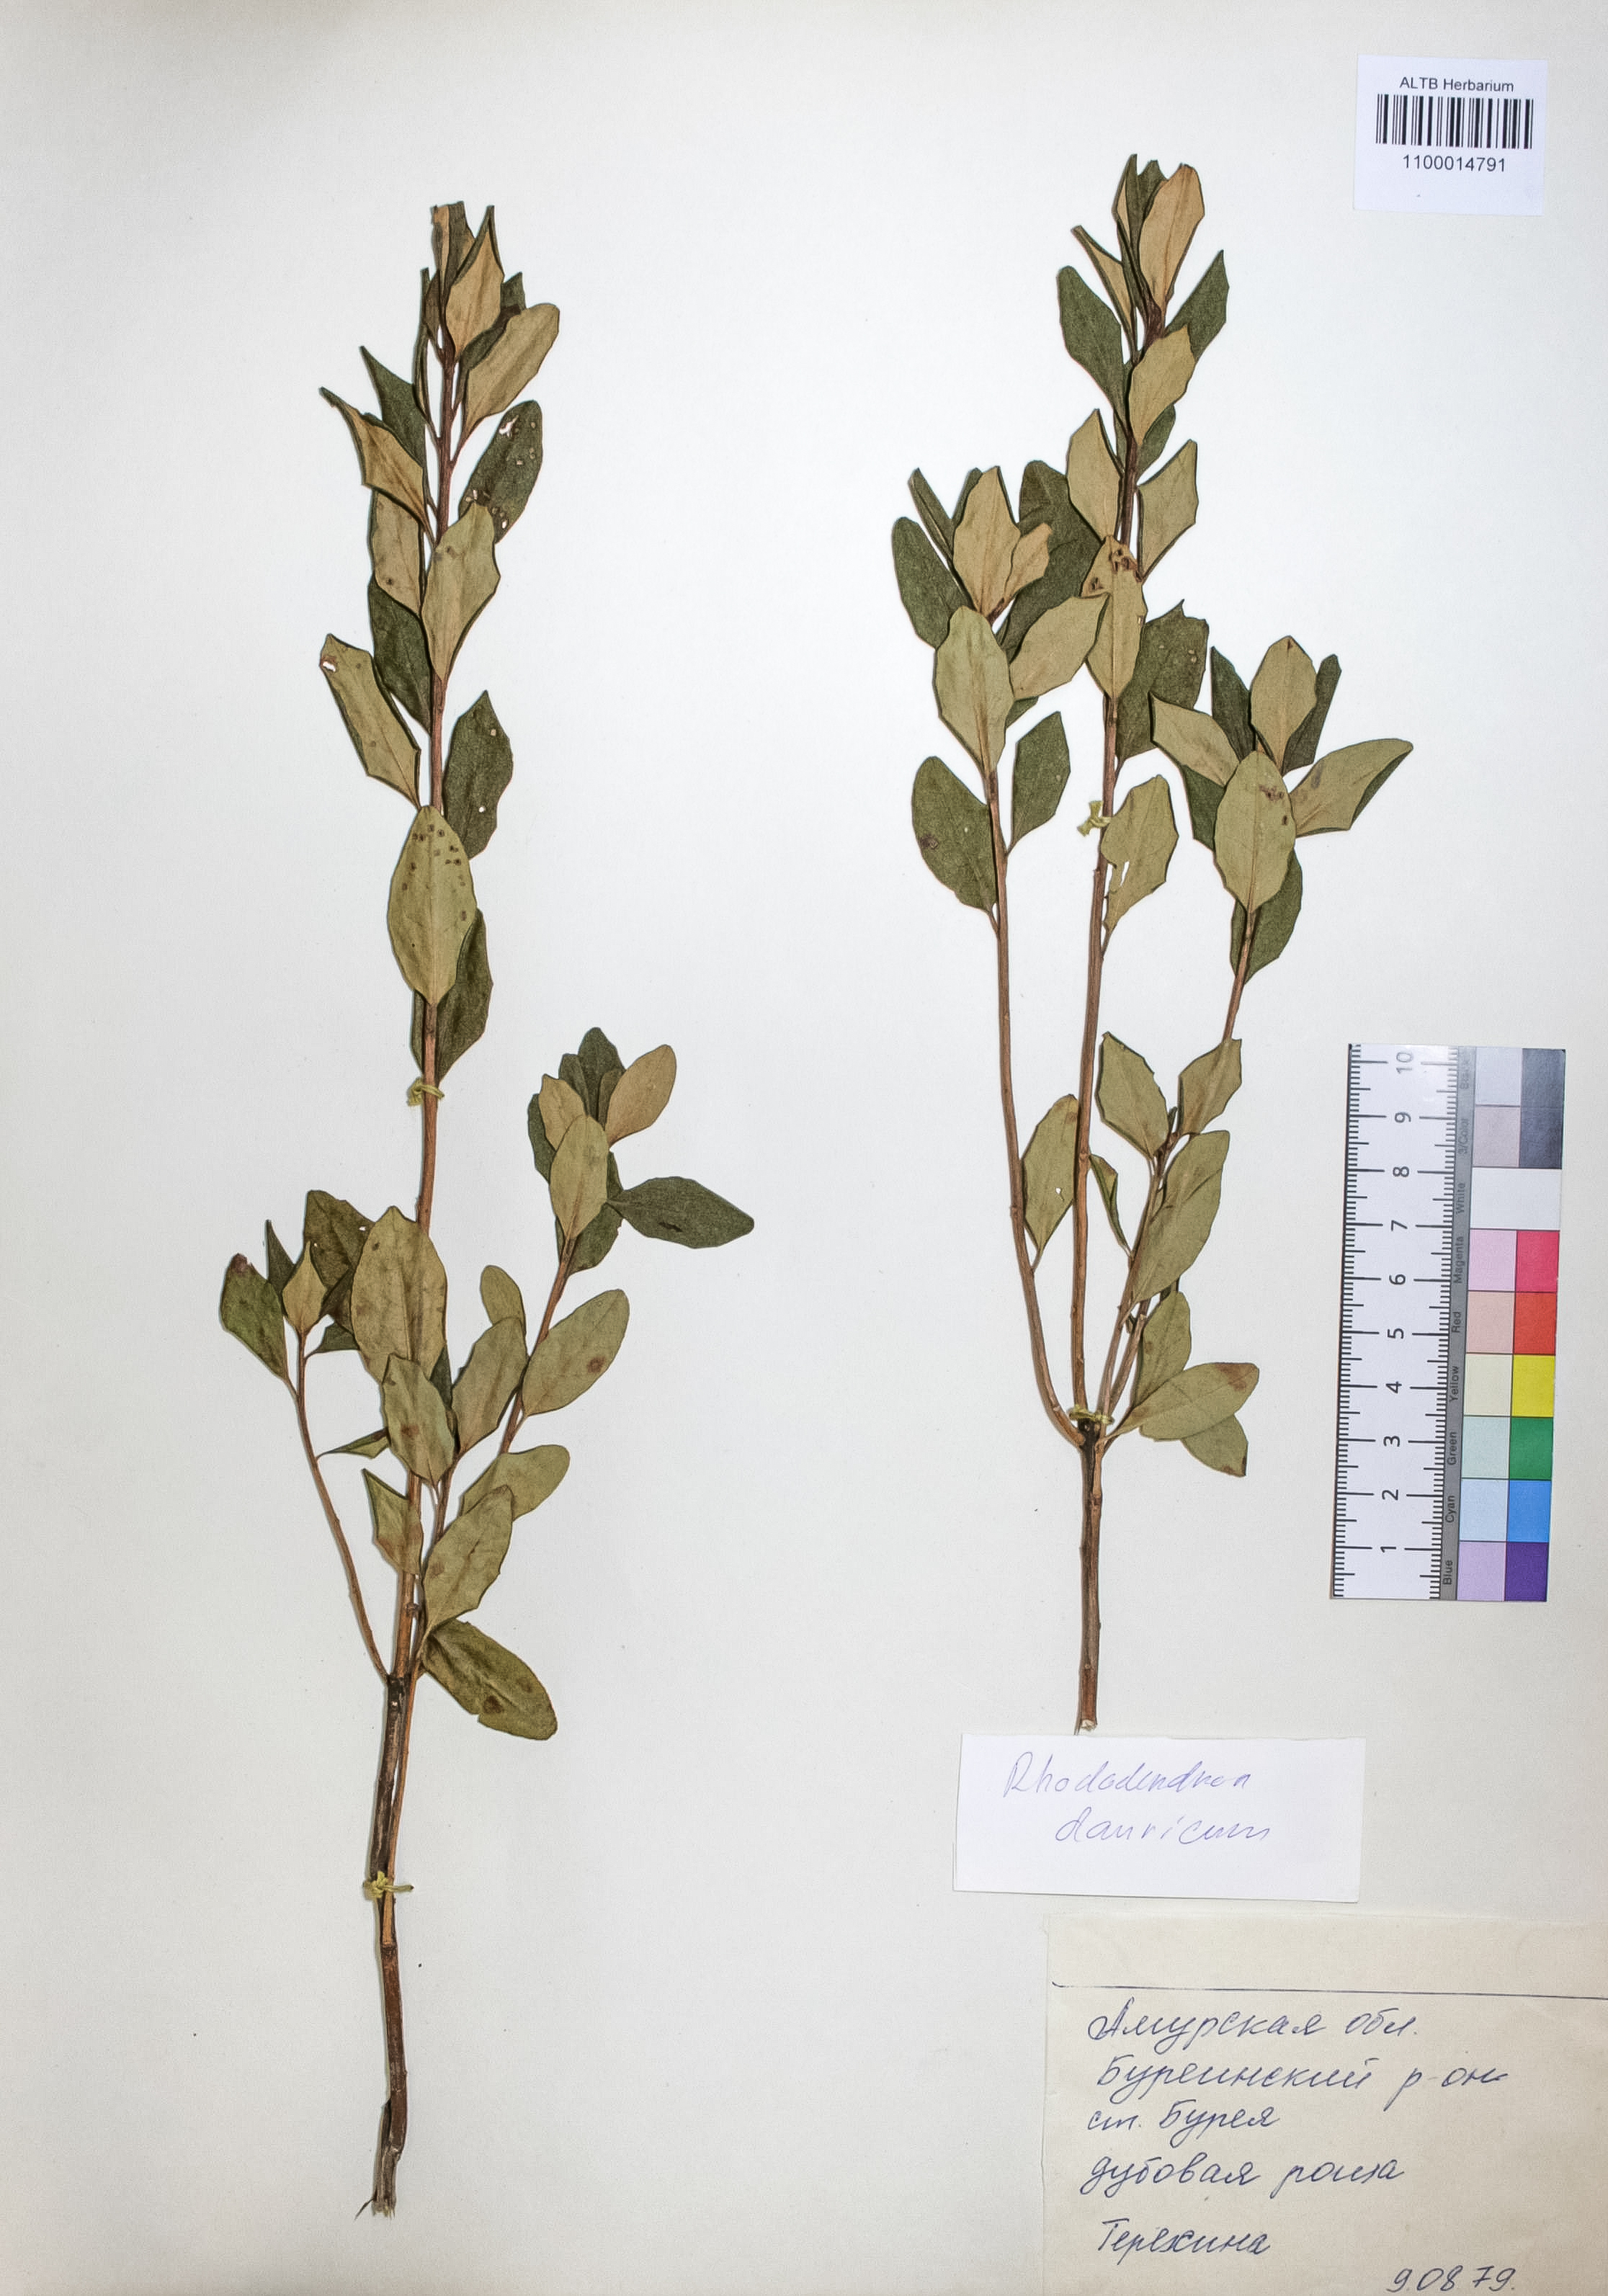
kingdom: Plantae
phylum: Tracheophyta
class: Magnoliopsida
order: Ericales
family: Ericaceae
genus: Rhododendron
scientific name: Rhododendron dahuricum
